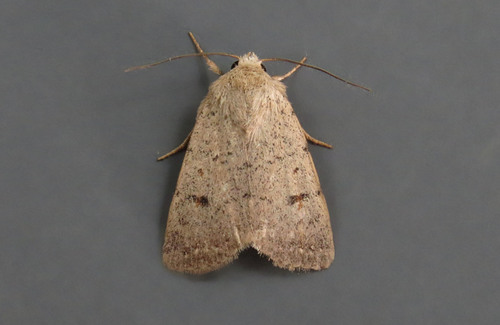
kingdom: Animalia
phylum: Arthropoda
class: Insecta
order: Lepidoptera
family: Noctuidae
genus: Caradrina
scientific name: Caradrina aspersa
